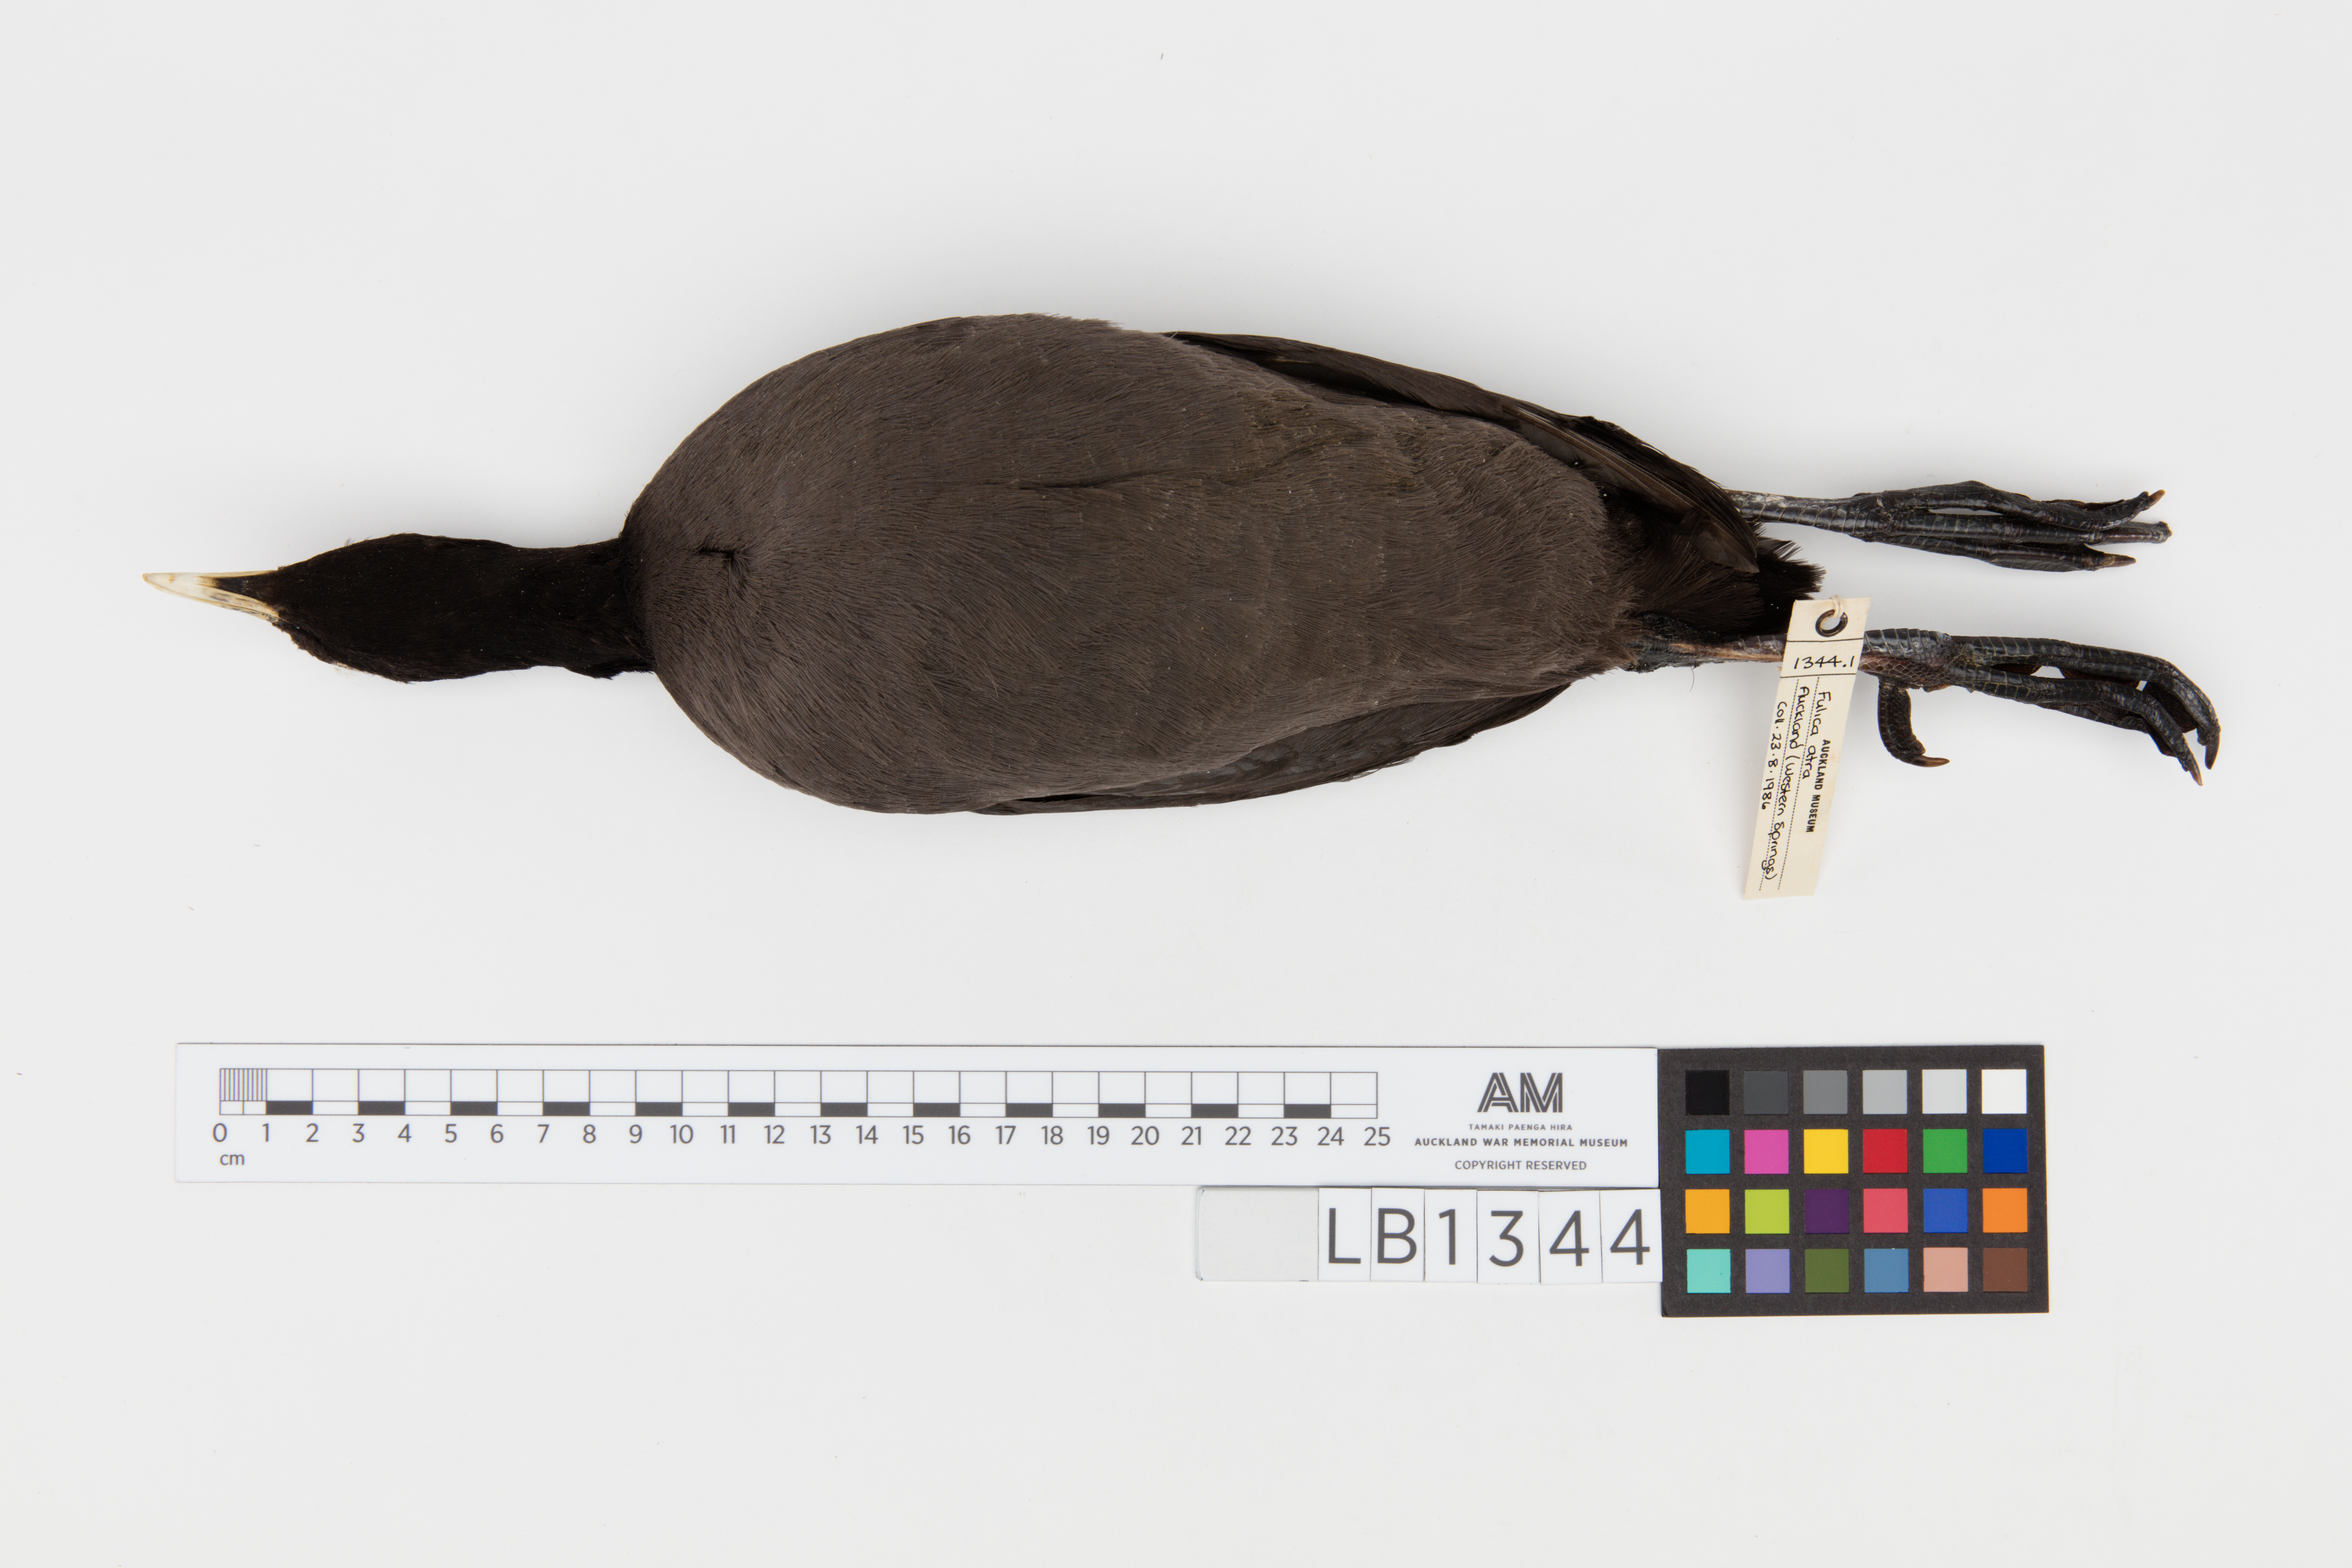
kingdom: Animalia
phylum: Chordata
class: Aves
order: Gruiformes
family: Rallidae
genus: Fulica
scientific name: Fulica atra
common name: Eurasian coot
